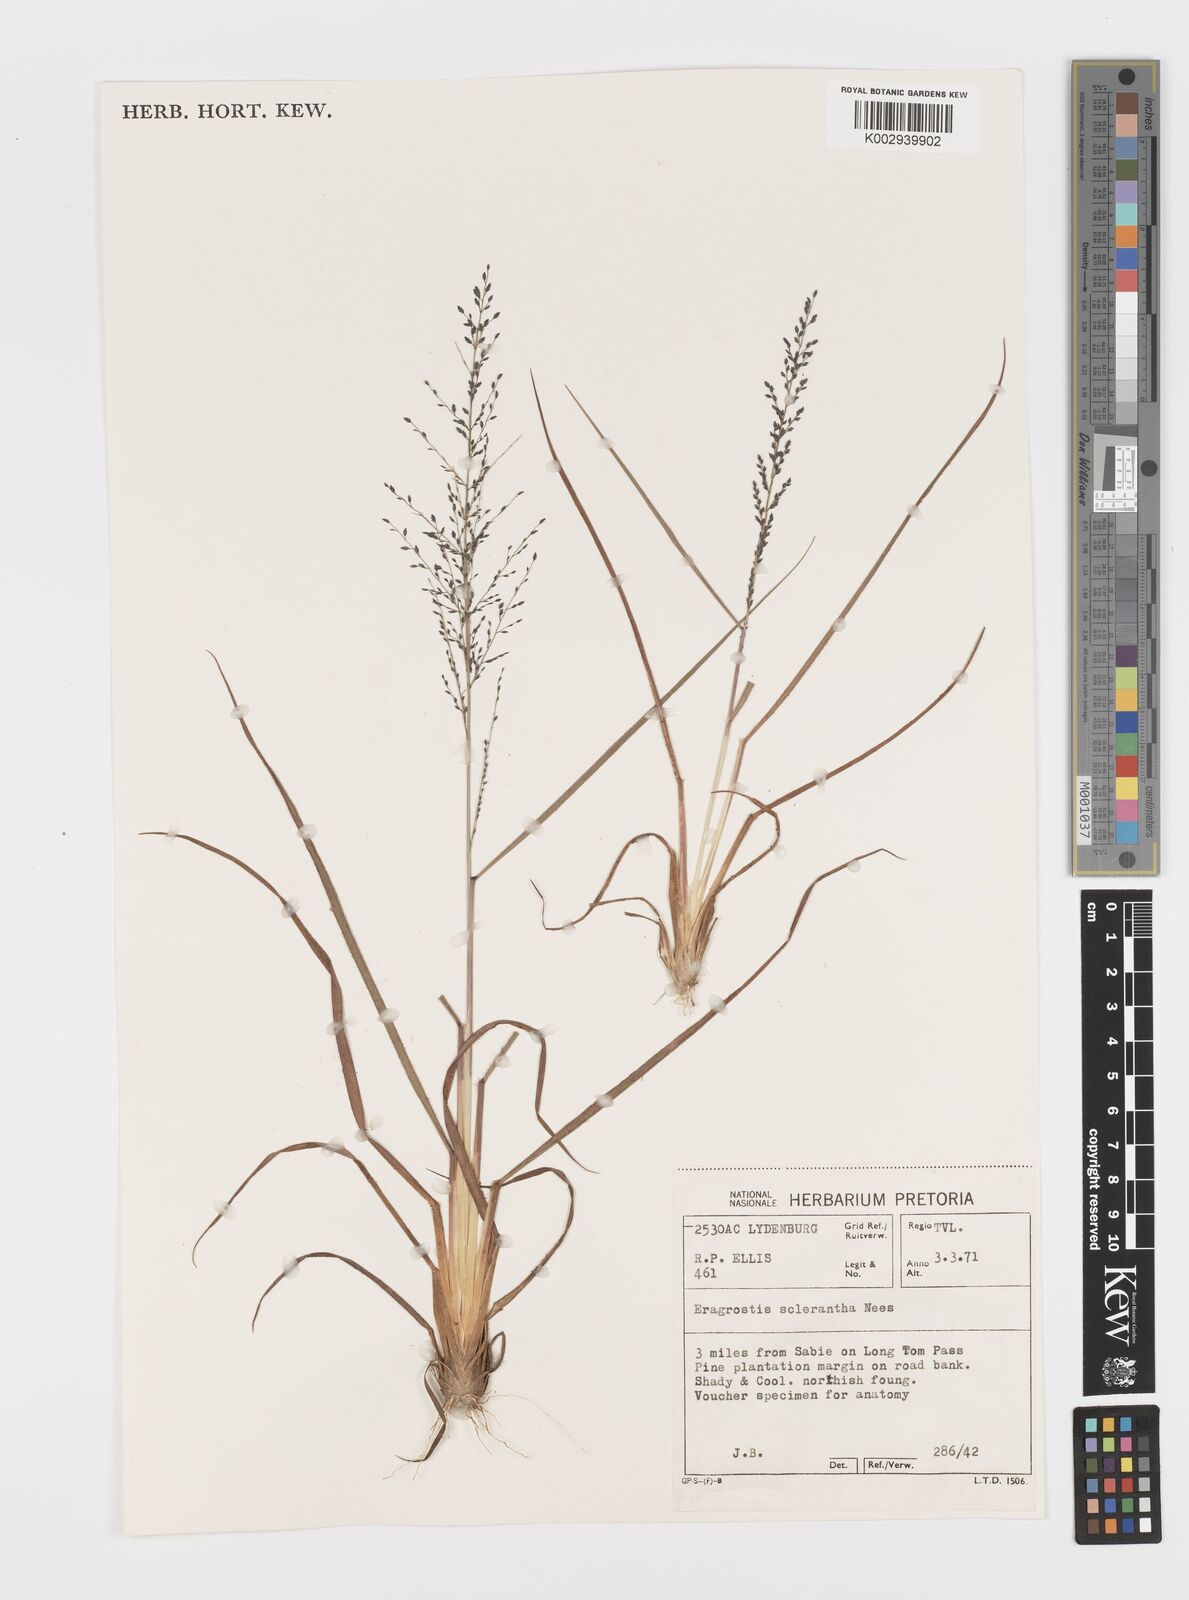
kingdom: Plantae
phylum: Tracheophyta
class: Liliopsida
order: Poales
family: Poaceae
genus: Eragrostis
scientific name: Eragrostis sclerantha
